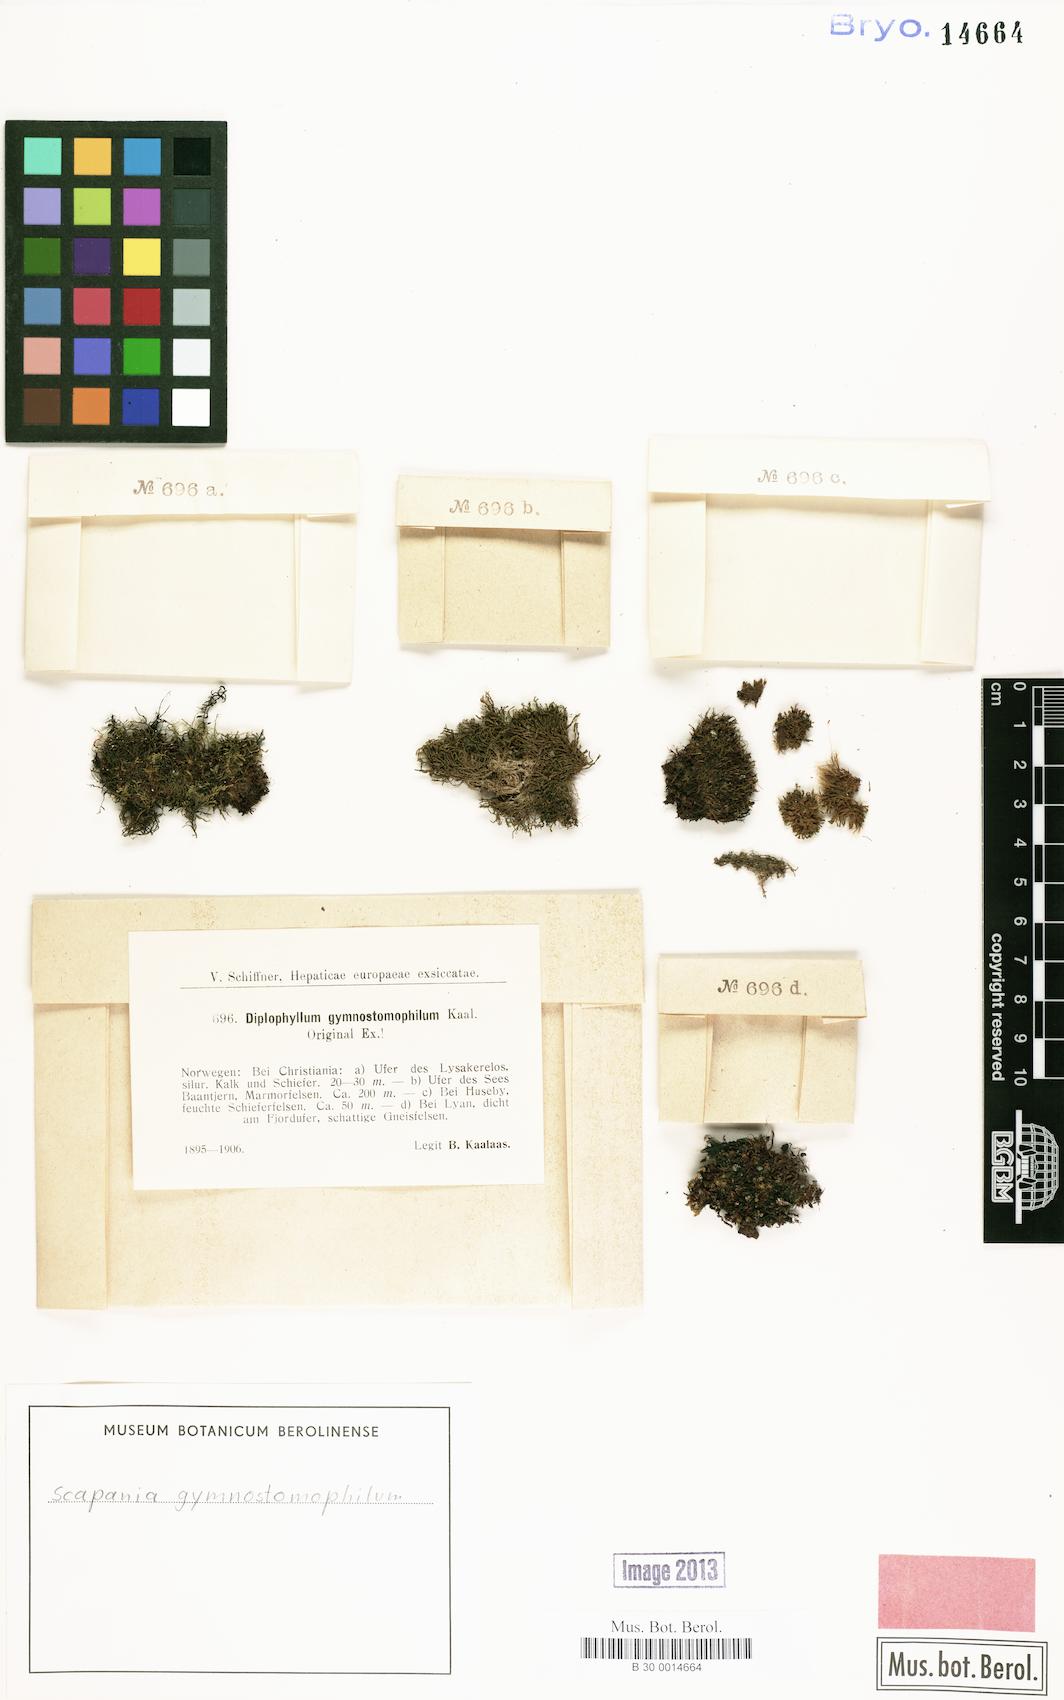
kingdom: Plantae
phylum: Marchantiophyta
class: Jungermanniopsida
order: Jungermanniales
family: Scapaniaceae
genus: Scapania
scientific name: Scapania gymnostomophila
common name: Narrow-lobed earwort
